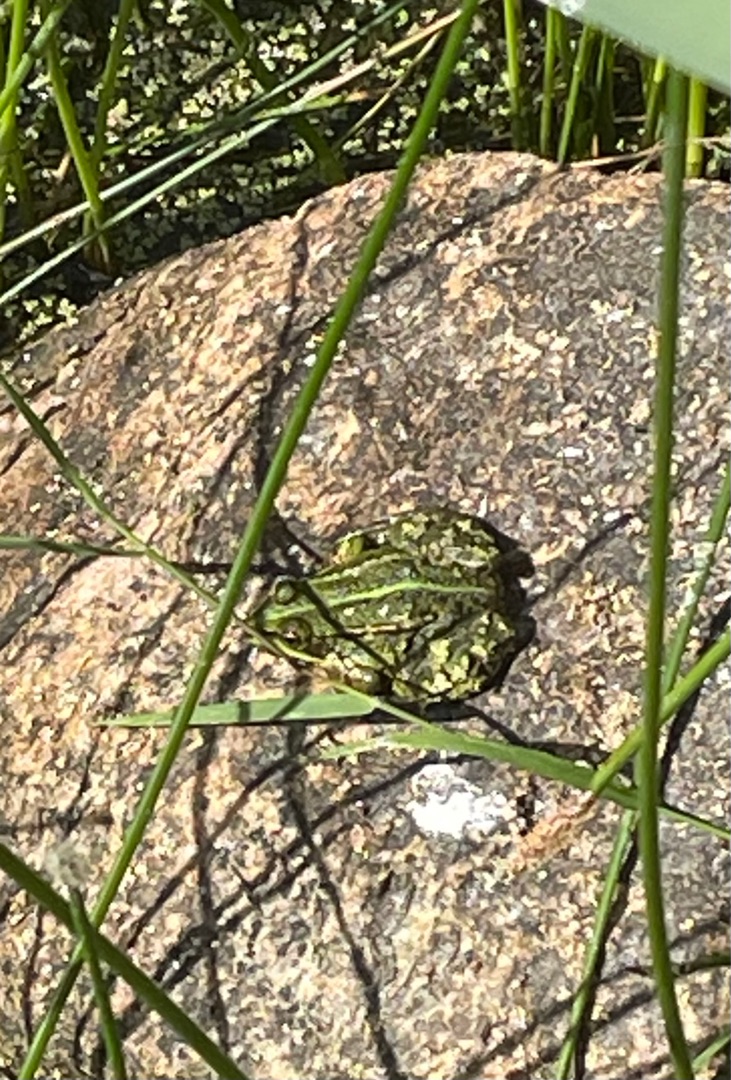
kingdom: Animalia
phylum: Chordata
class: Amphibia
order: Anura
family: Ranidae
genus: Pelophylax
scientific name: Pelophylax lessonae
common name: Grøn frø
